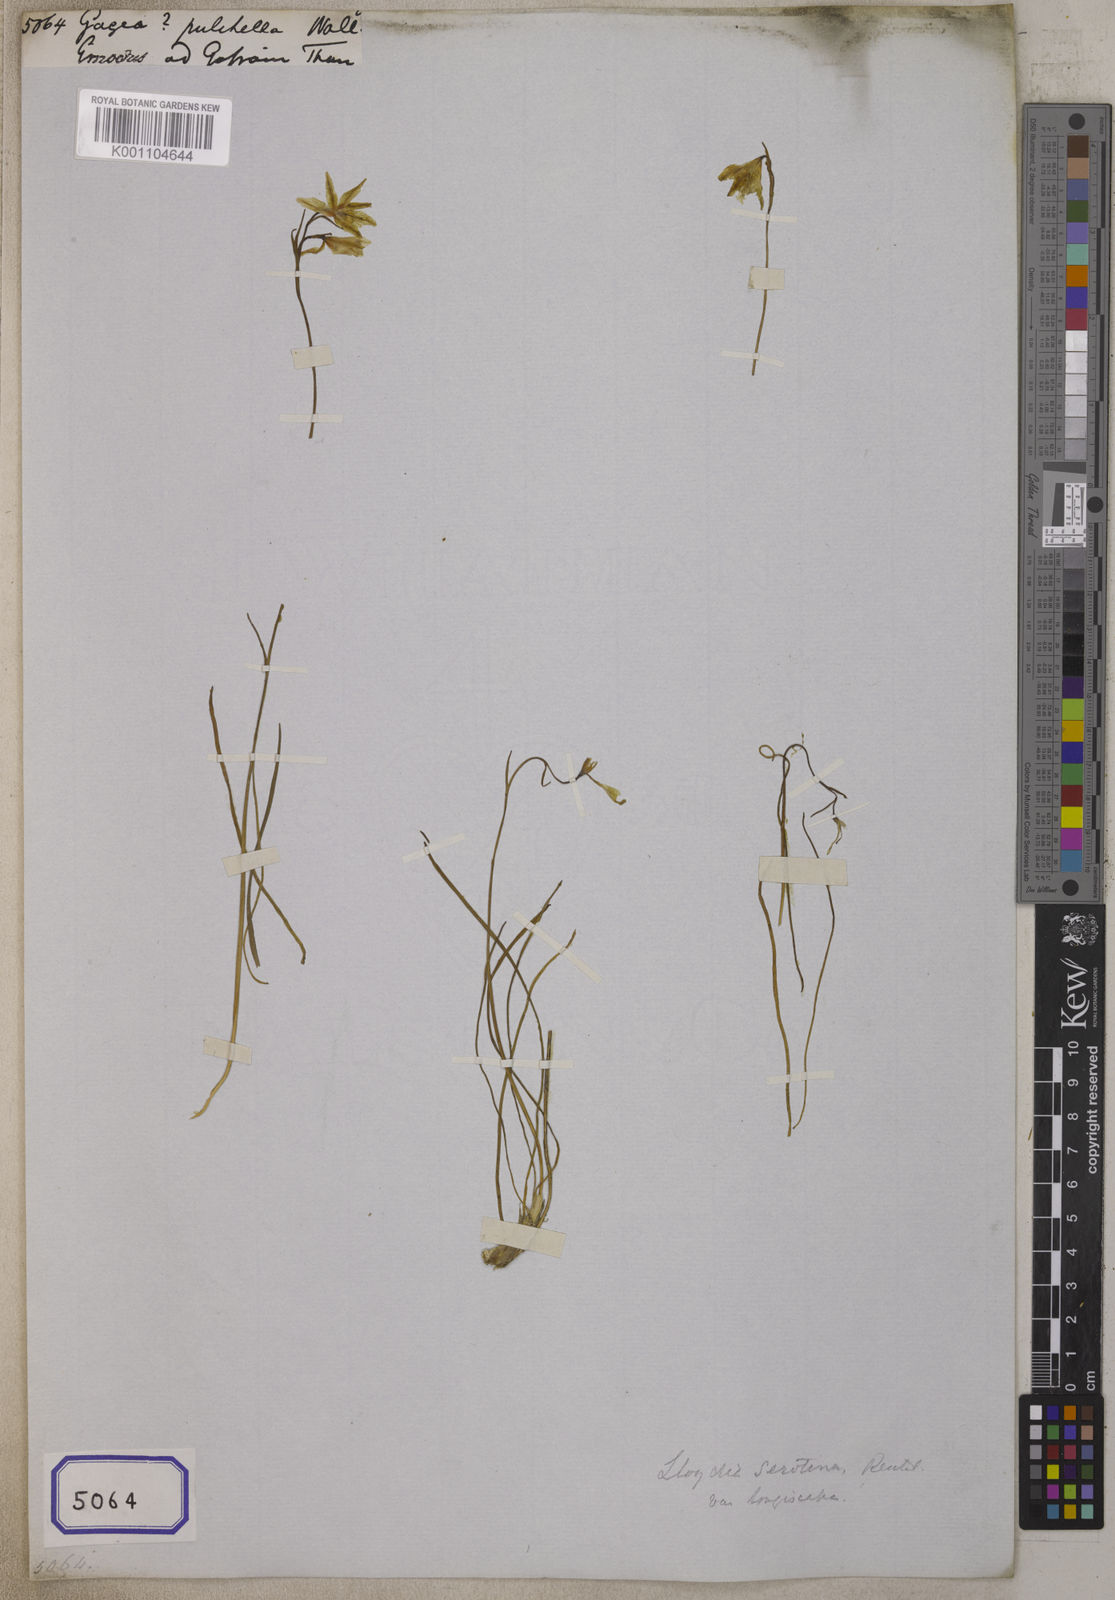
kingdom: Plantae
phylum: Tracheophyta
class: Liliopsida
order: Liliales
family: Liliaceae
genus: Gagea
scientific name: Gagea lasiantha
